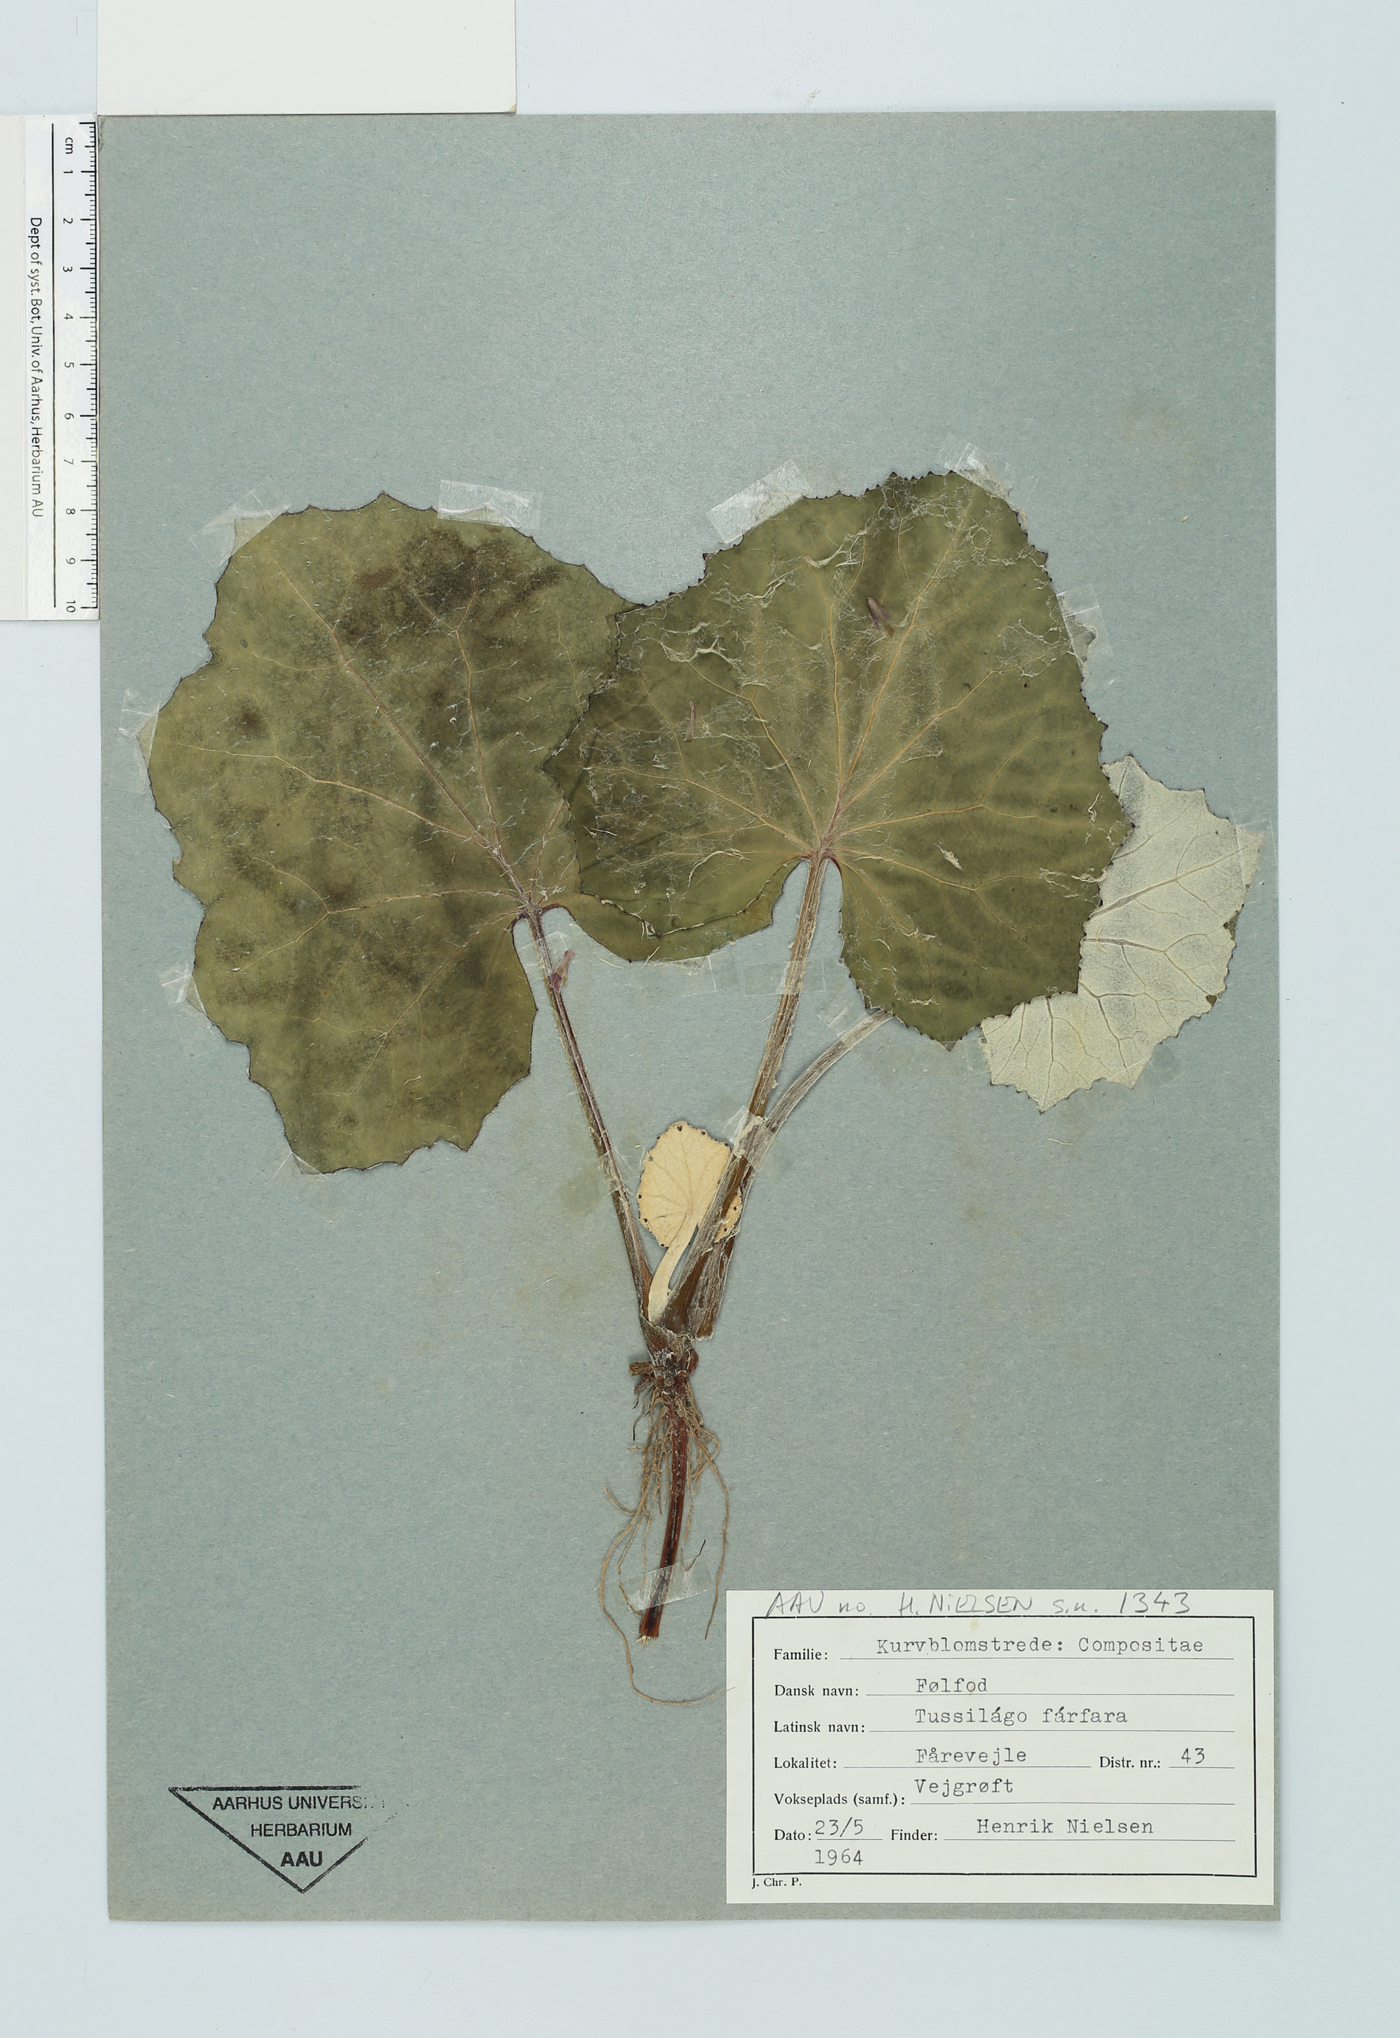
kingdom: Plantae
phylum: Tracheophyta
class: Magnoliopsida
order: Asterales
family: Asteraceae
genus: Tussilago
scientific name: Tussilago farfara
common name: Coltsfoot
